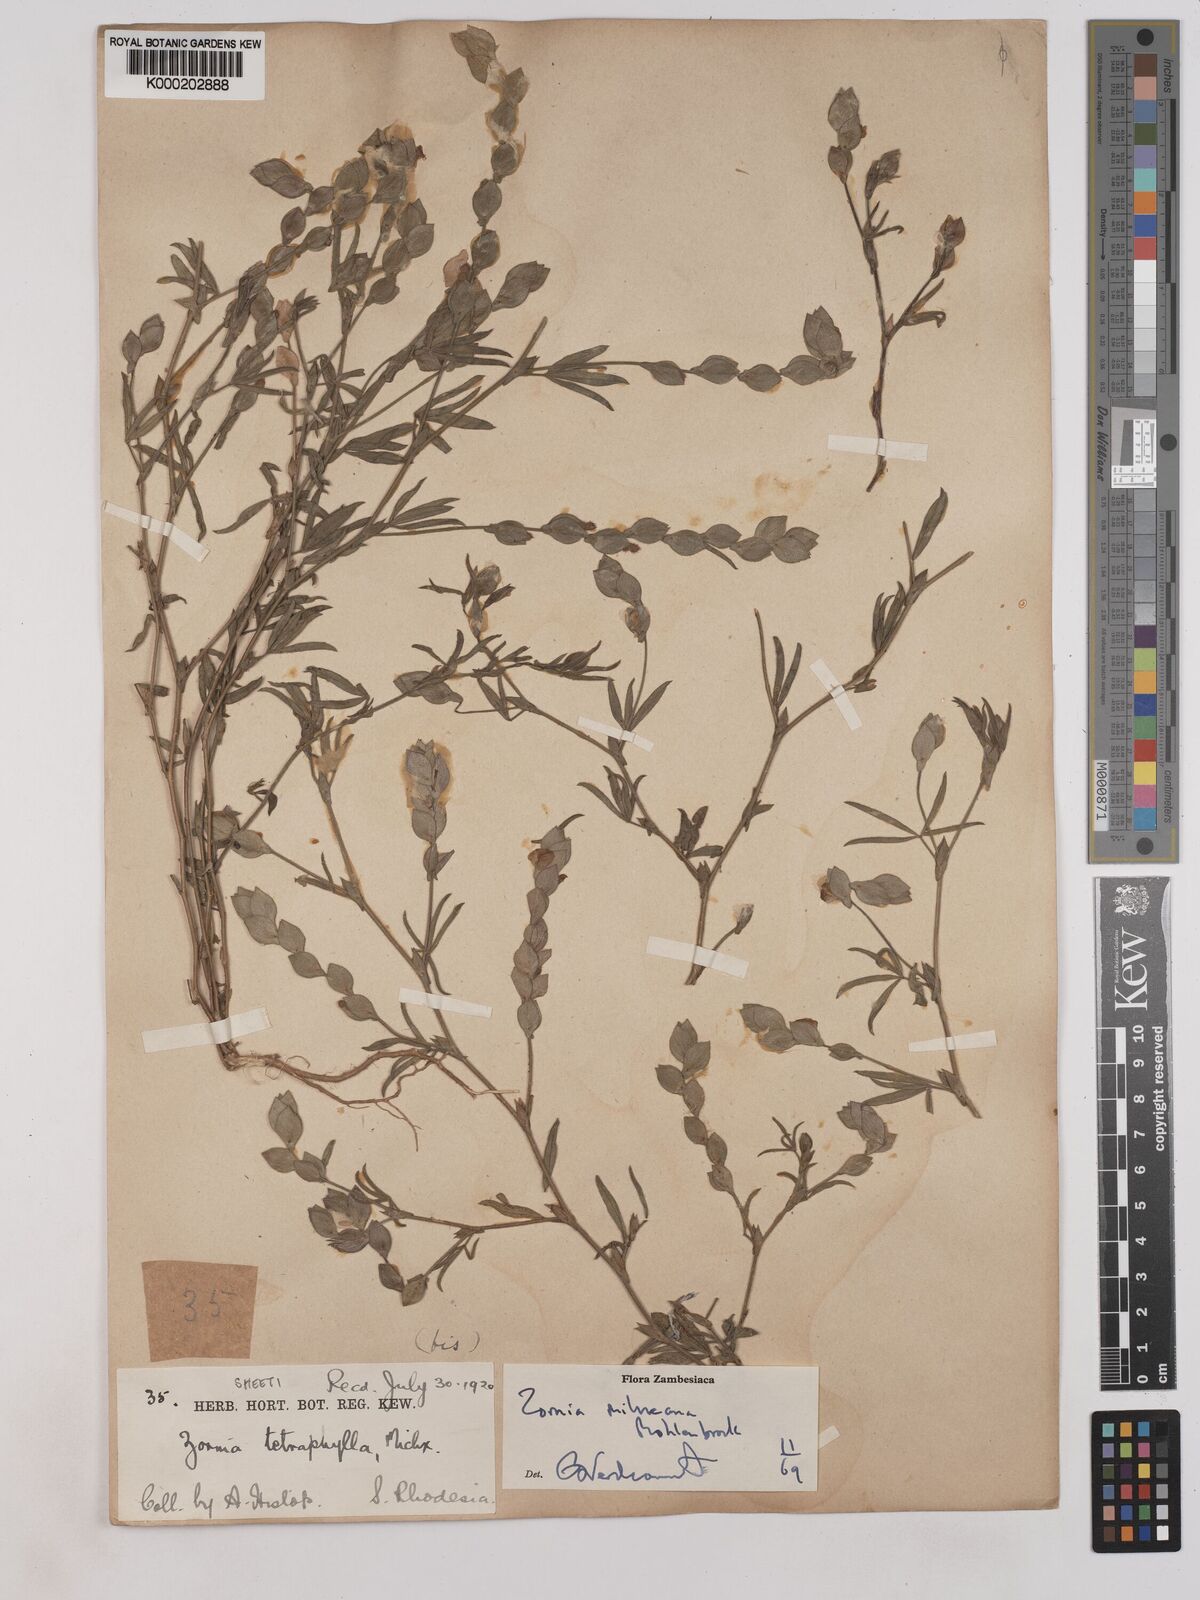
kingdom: Plantae
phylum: Tracheophyta
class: Magnoliopsida
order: Fabales
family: Fabaceae
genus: Zornia
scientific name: Zornia milneana
